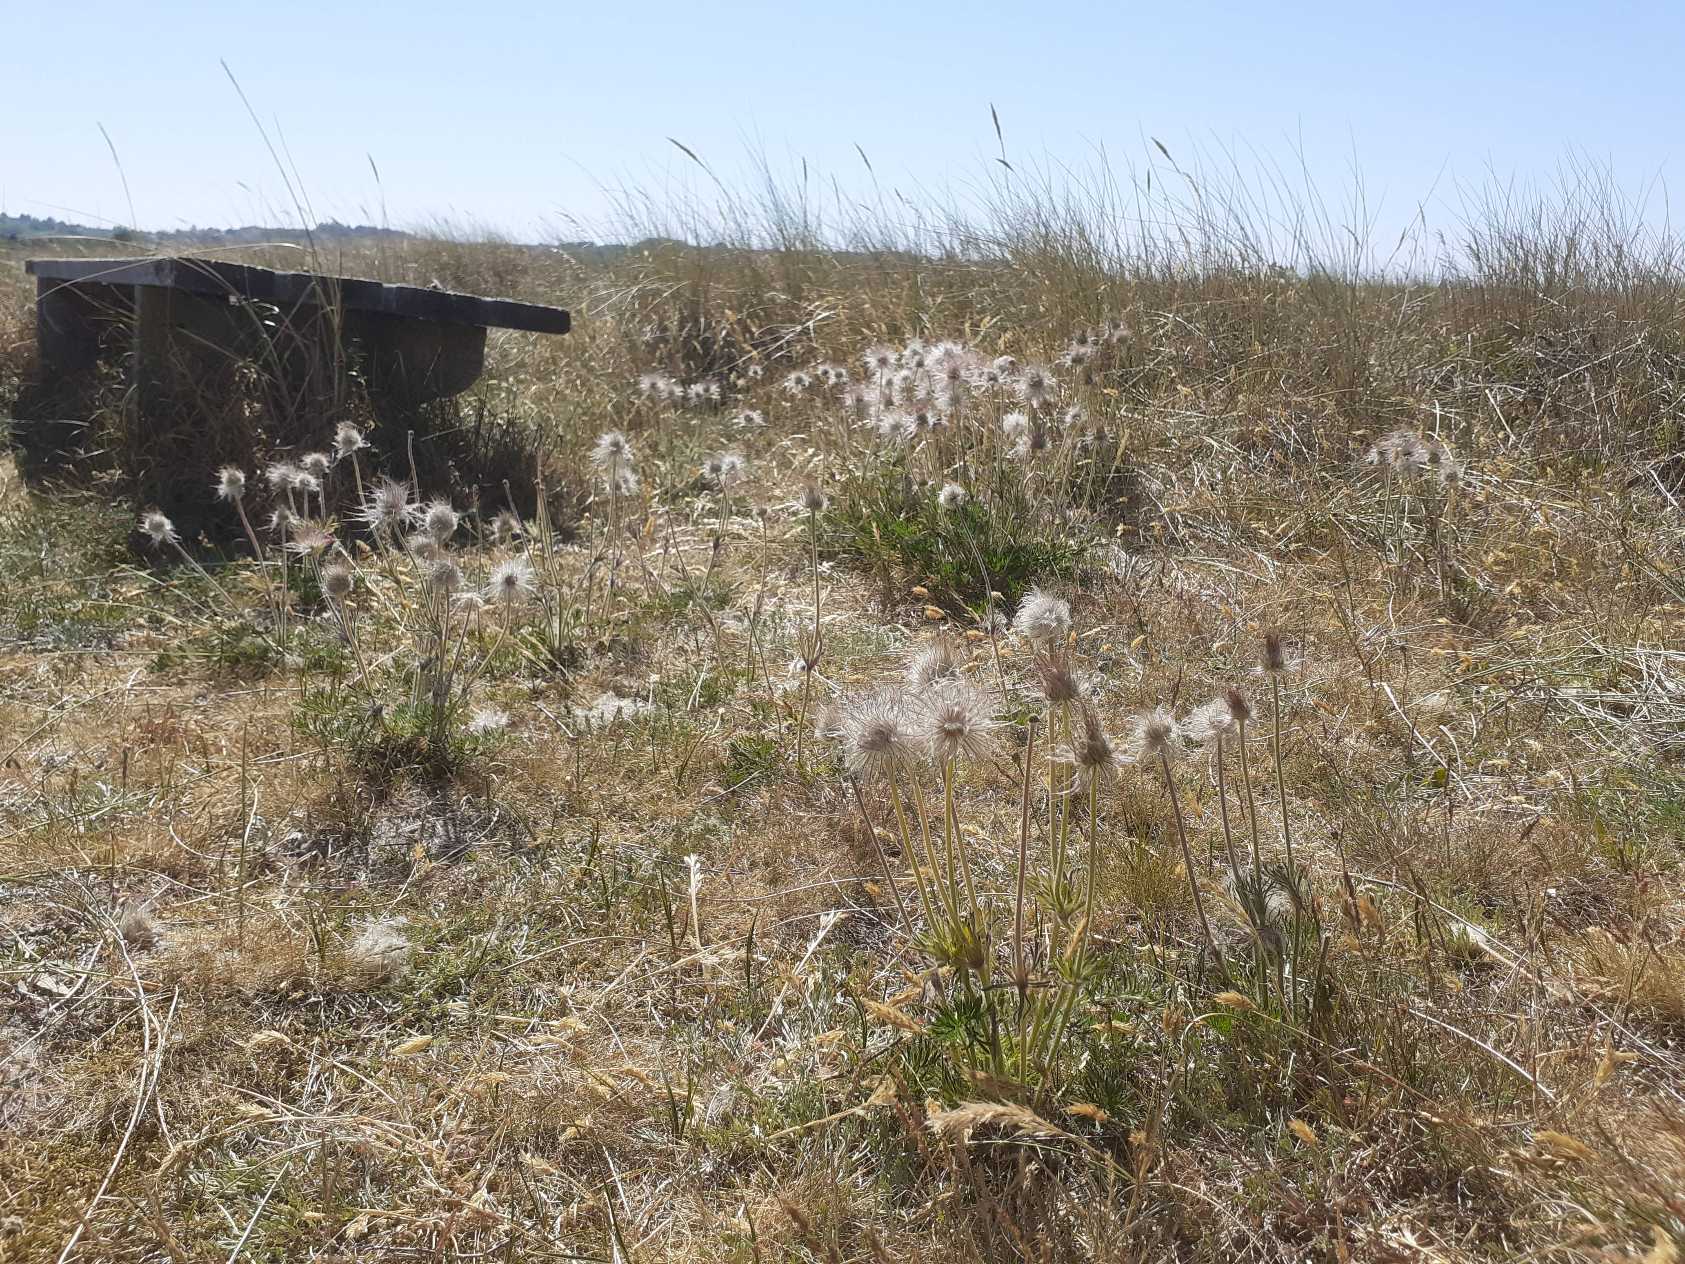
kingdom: Plantae
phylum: Tracheophyta
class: Magnoliopsida
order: Ranunculales
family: Ranunculaceae
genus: Pulsatilla
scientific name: Pulsatilla pratensis
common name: Nikkende kobjælde
